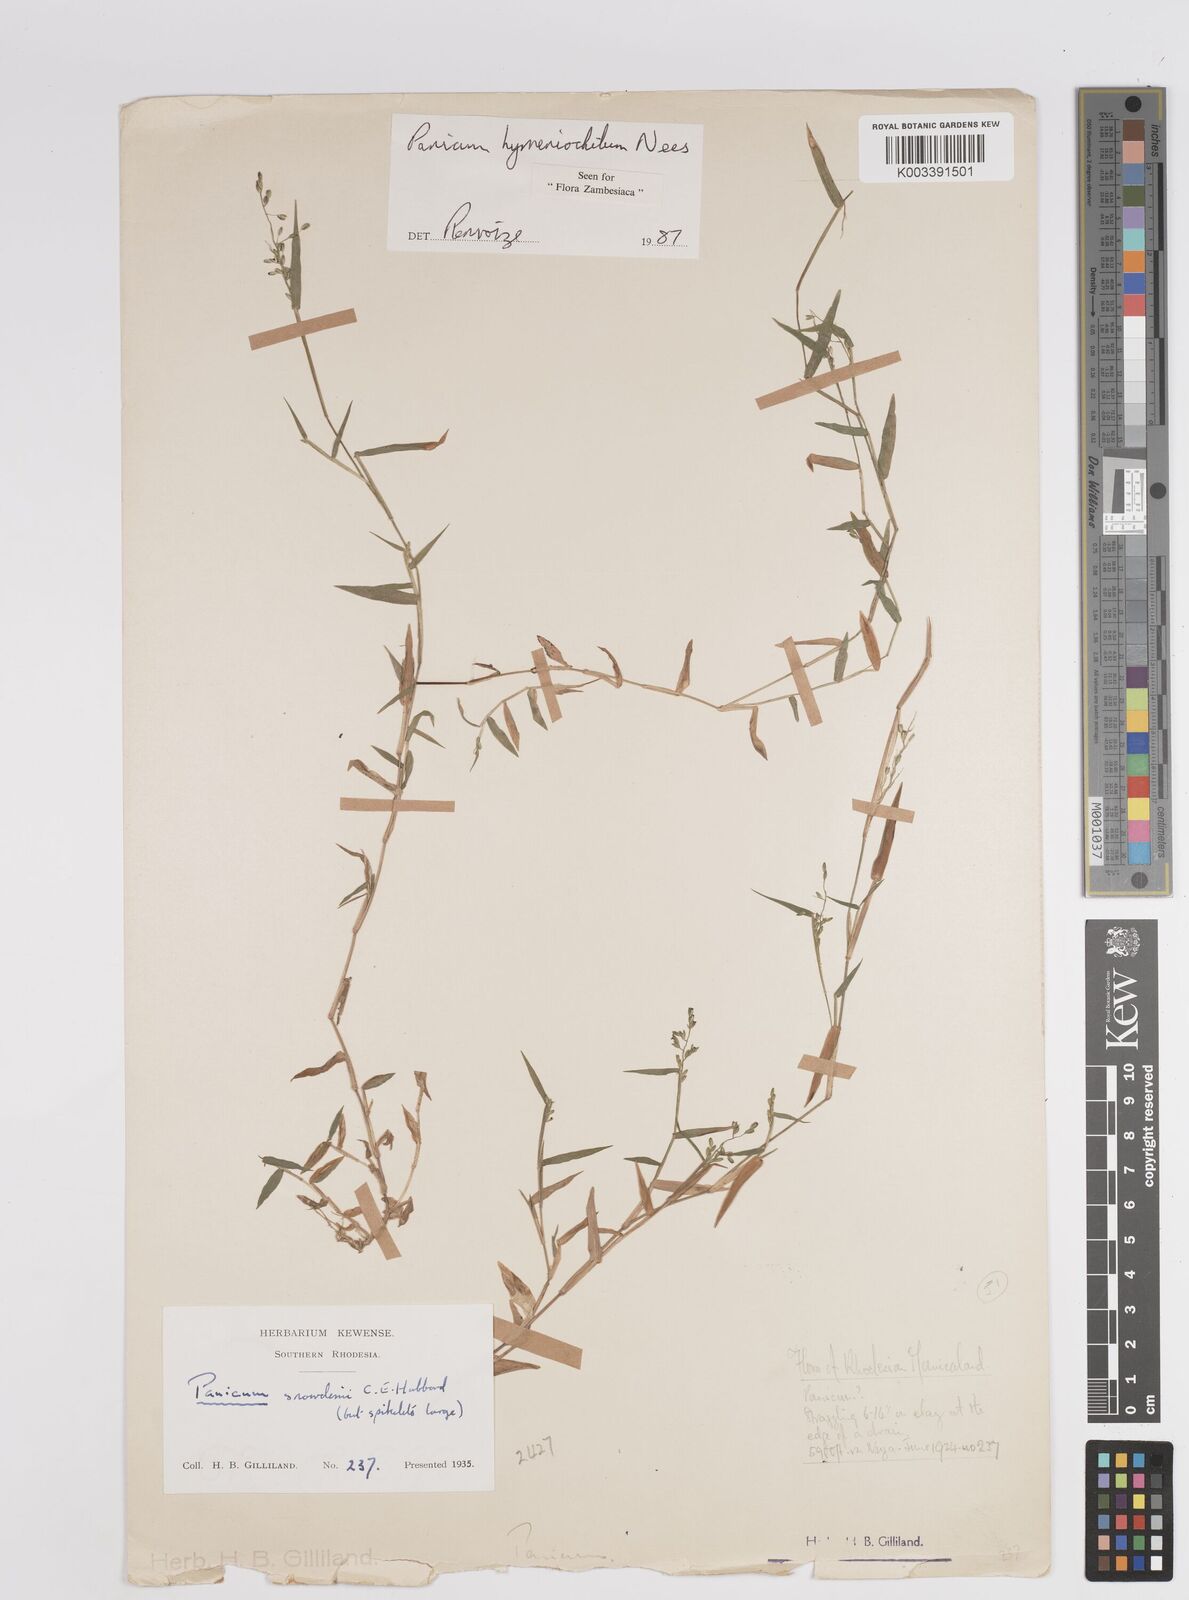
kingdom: Plantae
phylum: Tracheophyta
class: Liliopsida
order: Poales
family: Poaceae
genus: Adenochloa
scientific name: Adenochloa hymeniochila
